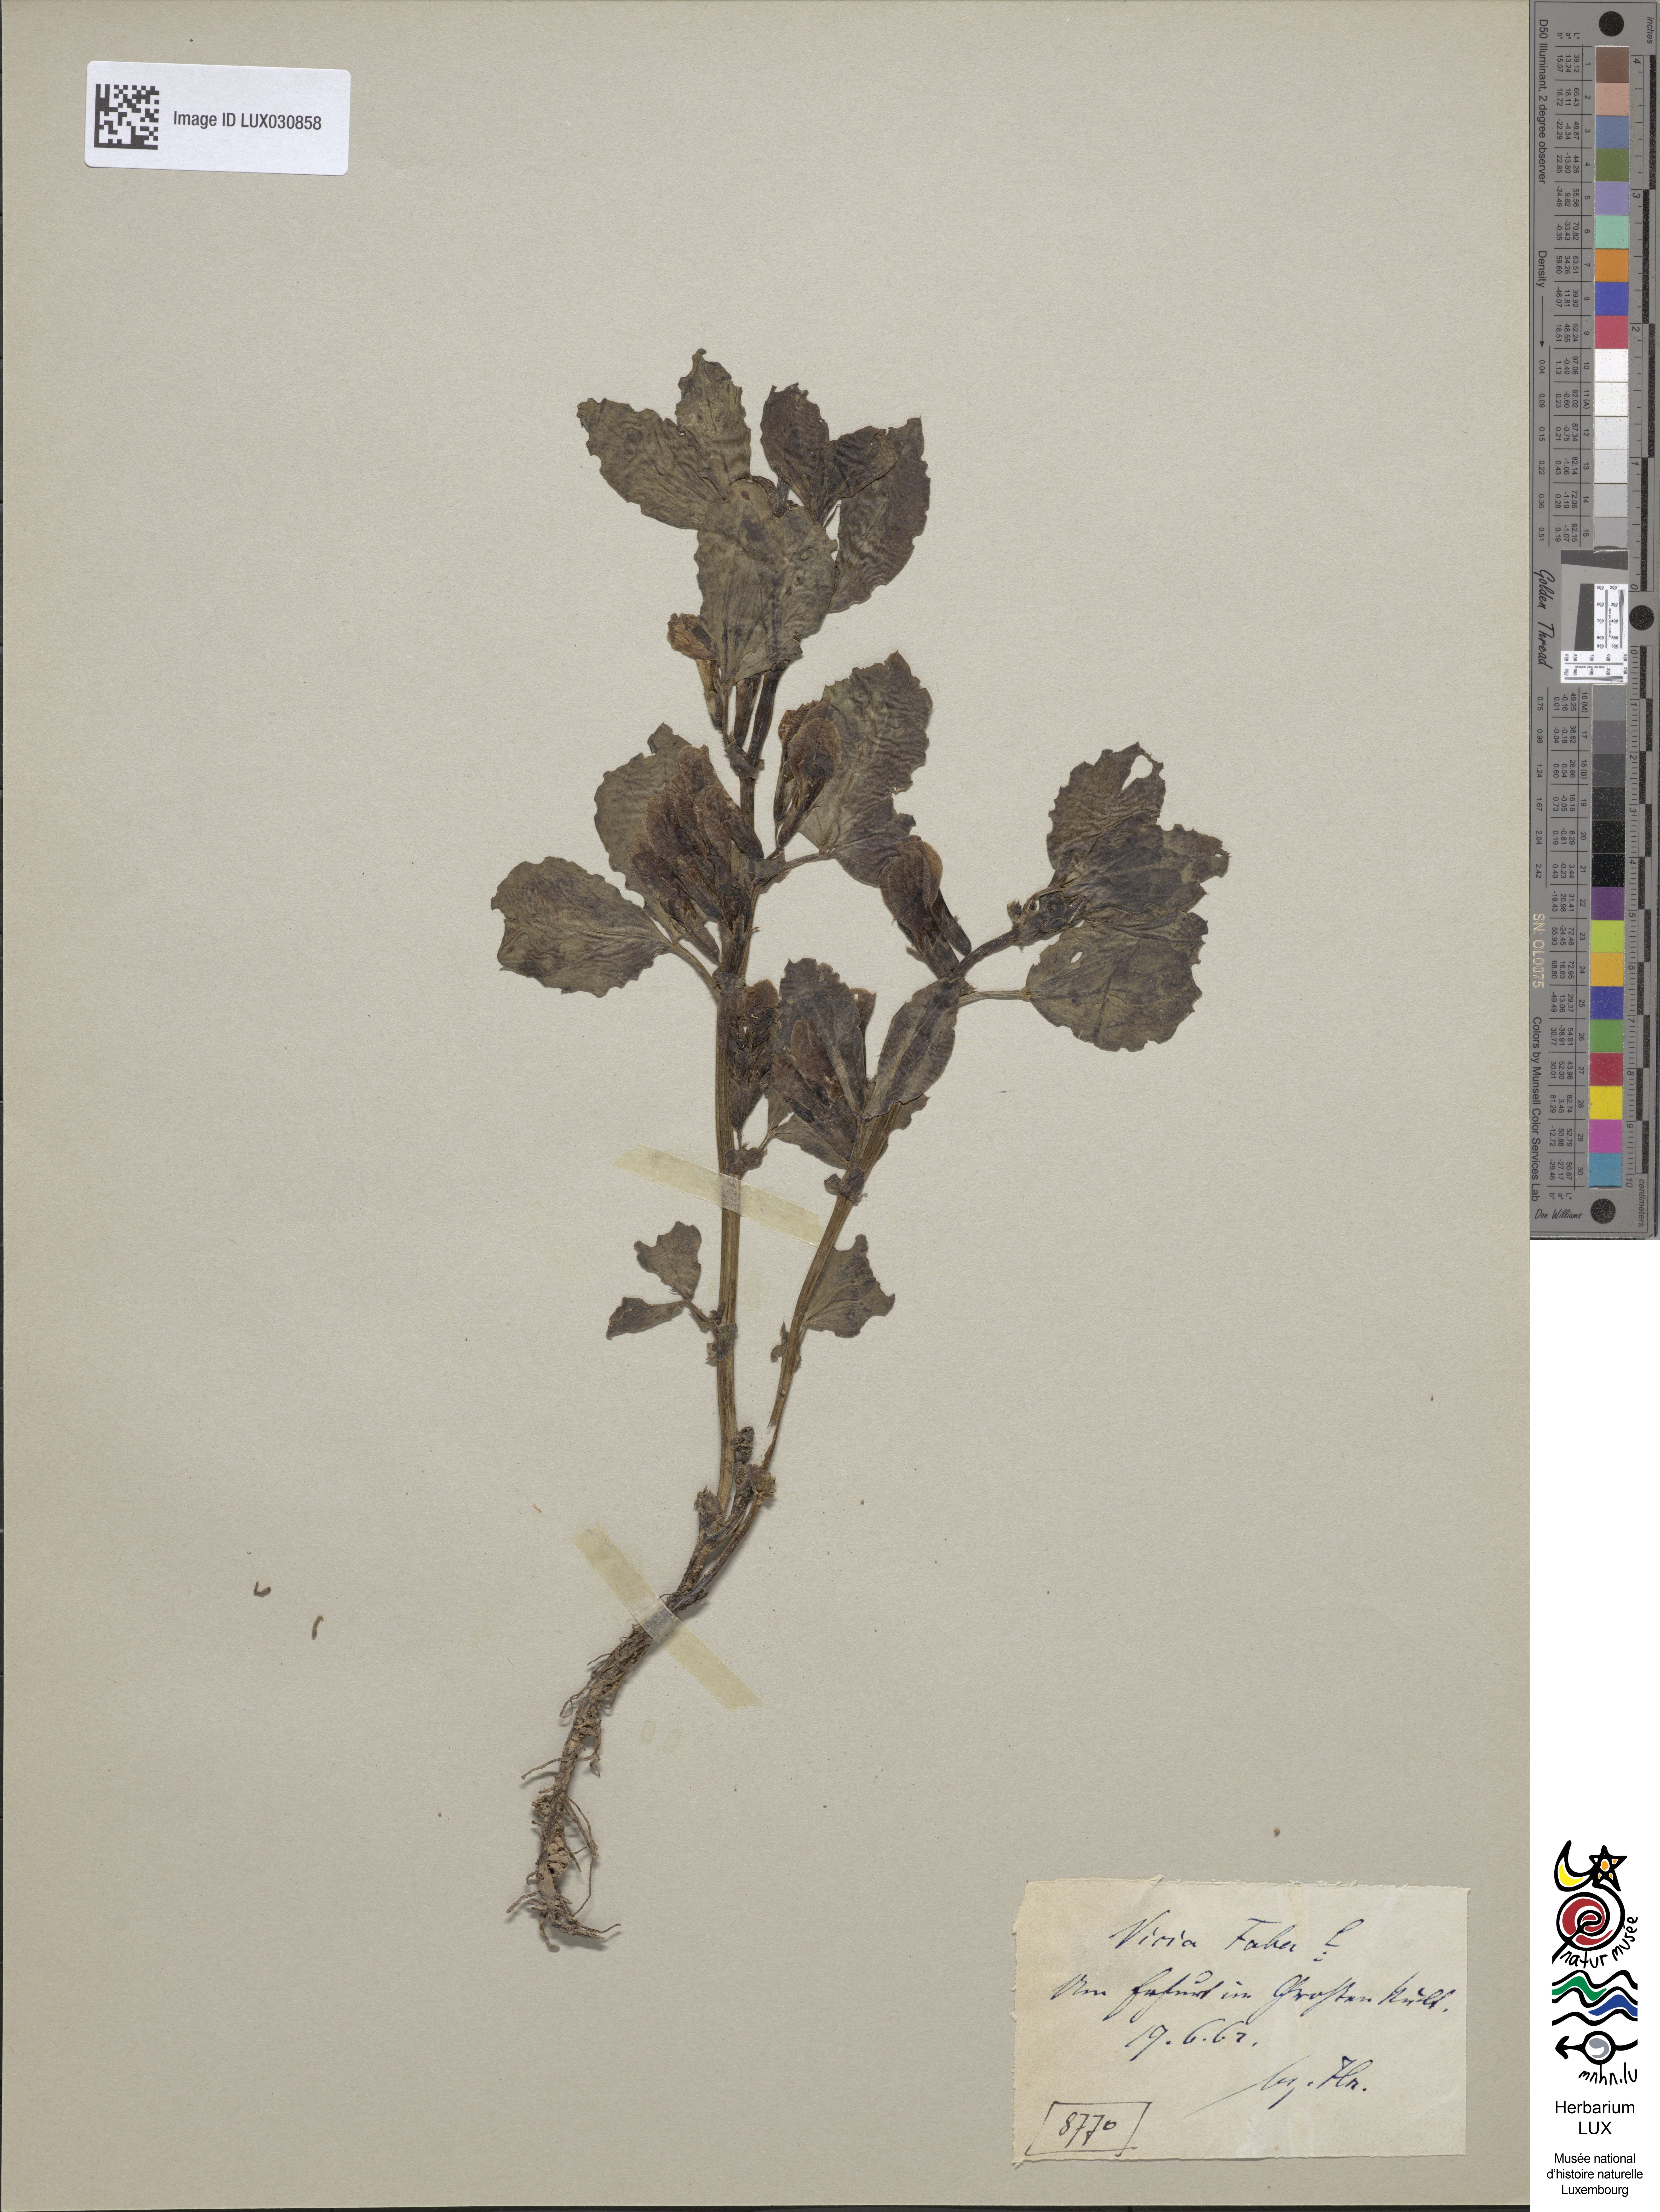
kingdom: Plantae
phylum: Tracheophyta
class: Magnoliopsida
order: Fabales
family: Fabaceae
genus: Vicia
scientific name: Vicia faba
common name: Broad bean
